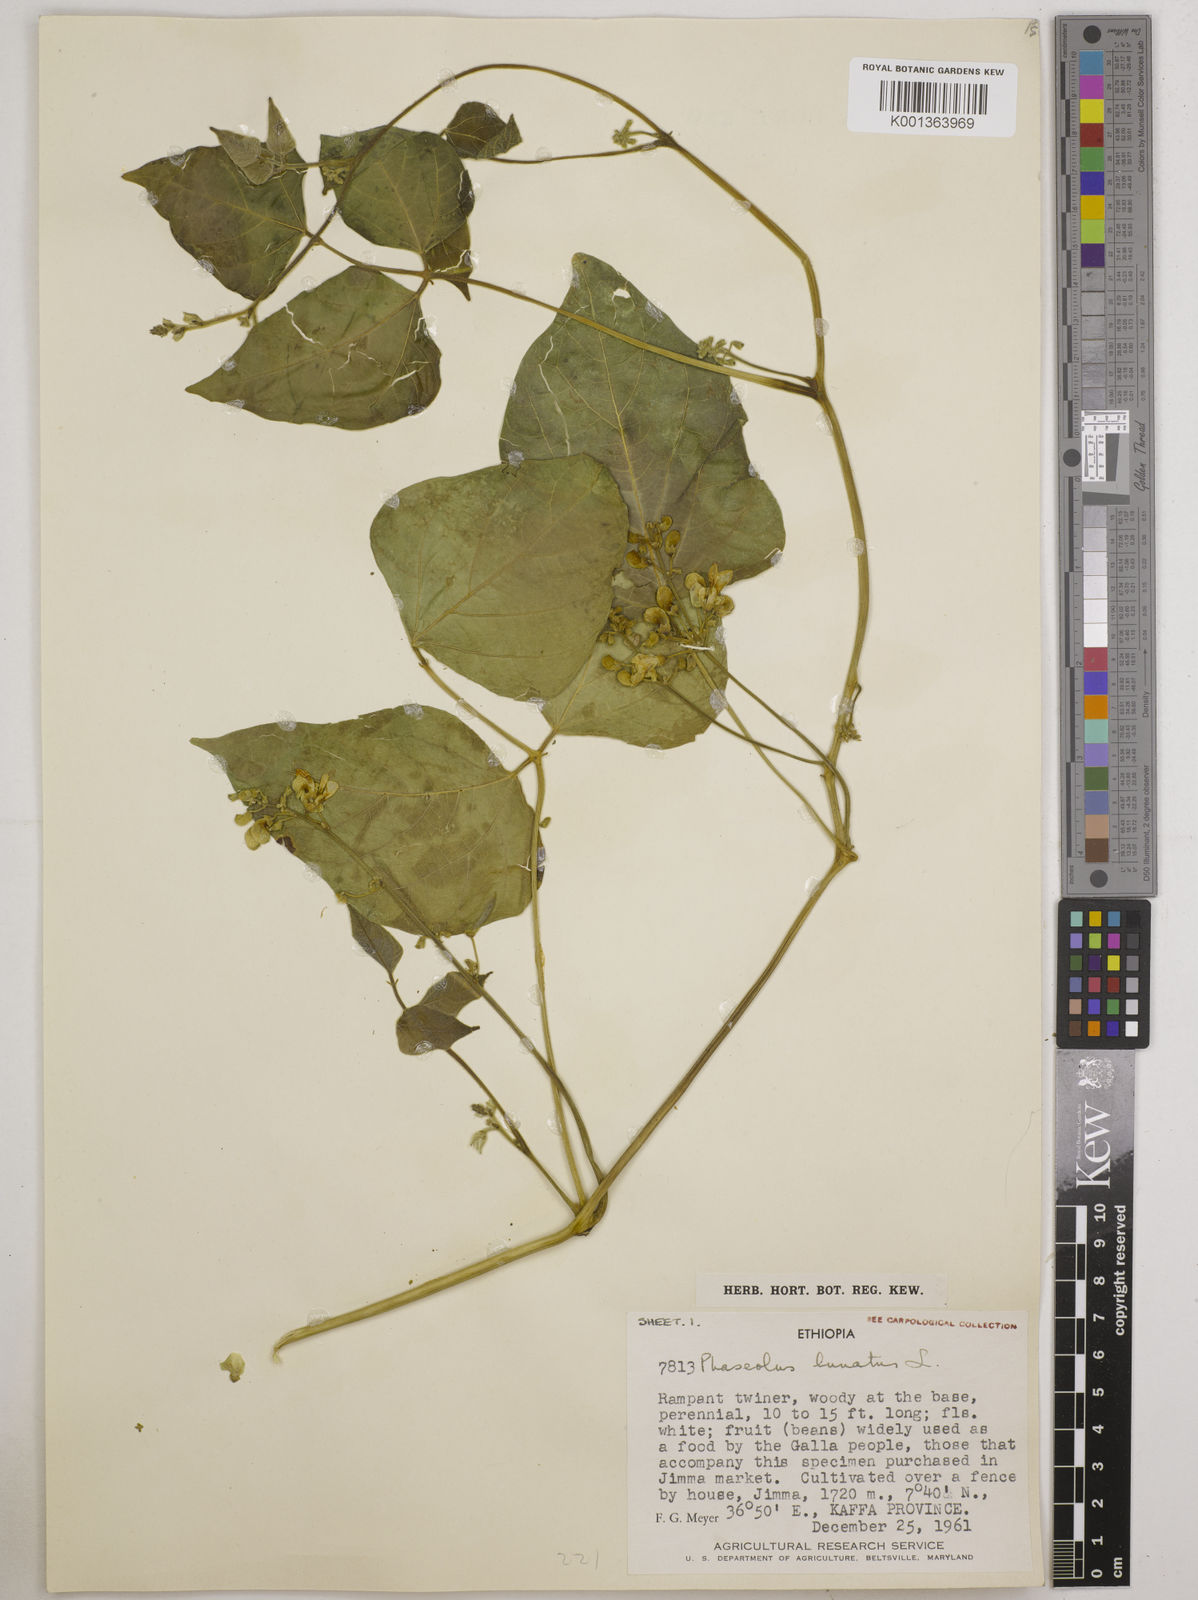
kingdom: Plantae
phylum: Tracheophyta
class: Magnoliopsida
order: Fabales
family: Fabaceae
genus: Phaseolus
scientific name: Phaseolus lunatus
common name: Sieva bean
